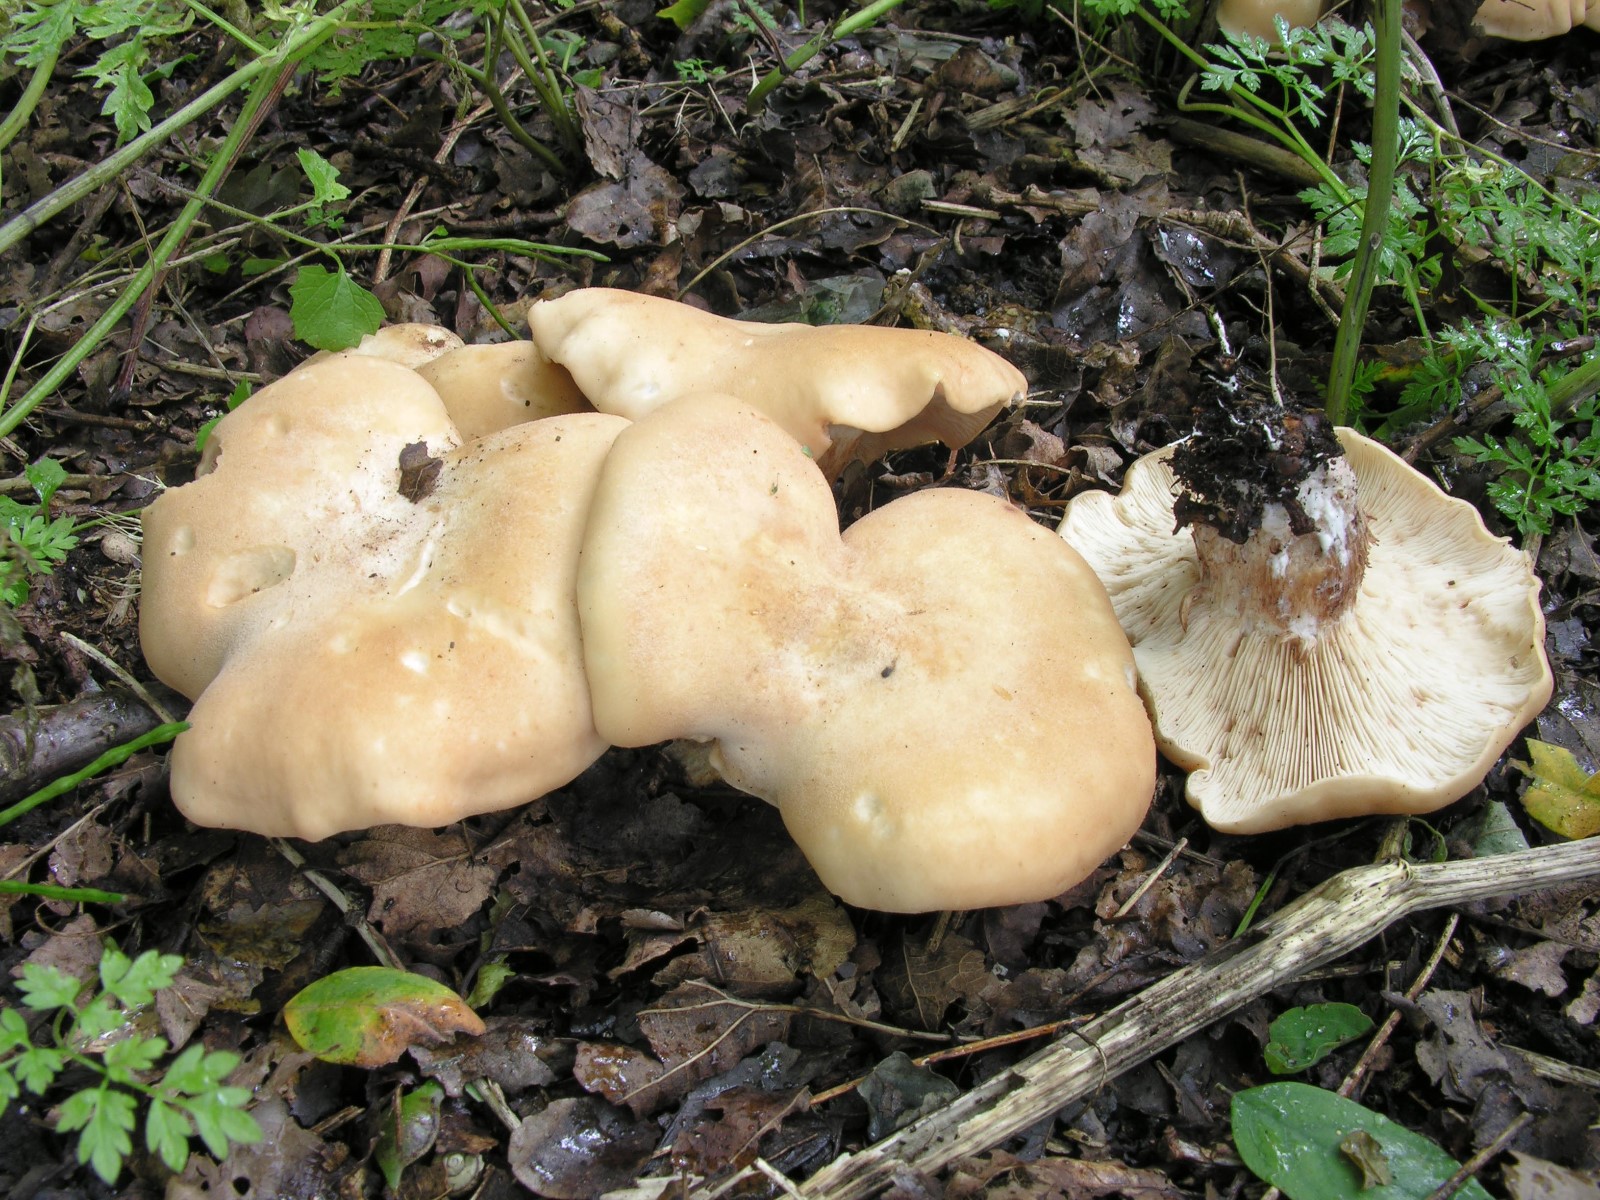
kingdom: Fungi
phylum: Basidiomycota
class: Agaricomycetes
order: Agaricales
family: Entolomataceae
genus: Clitopilus
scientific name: Clitopilus geminus
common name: kødfarvet troldhat
